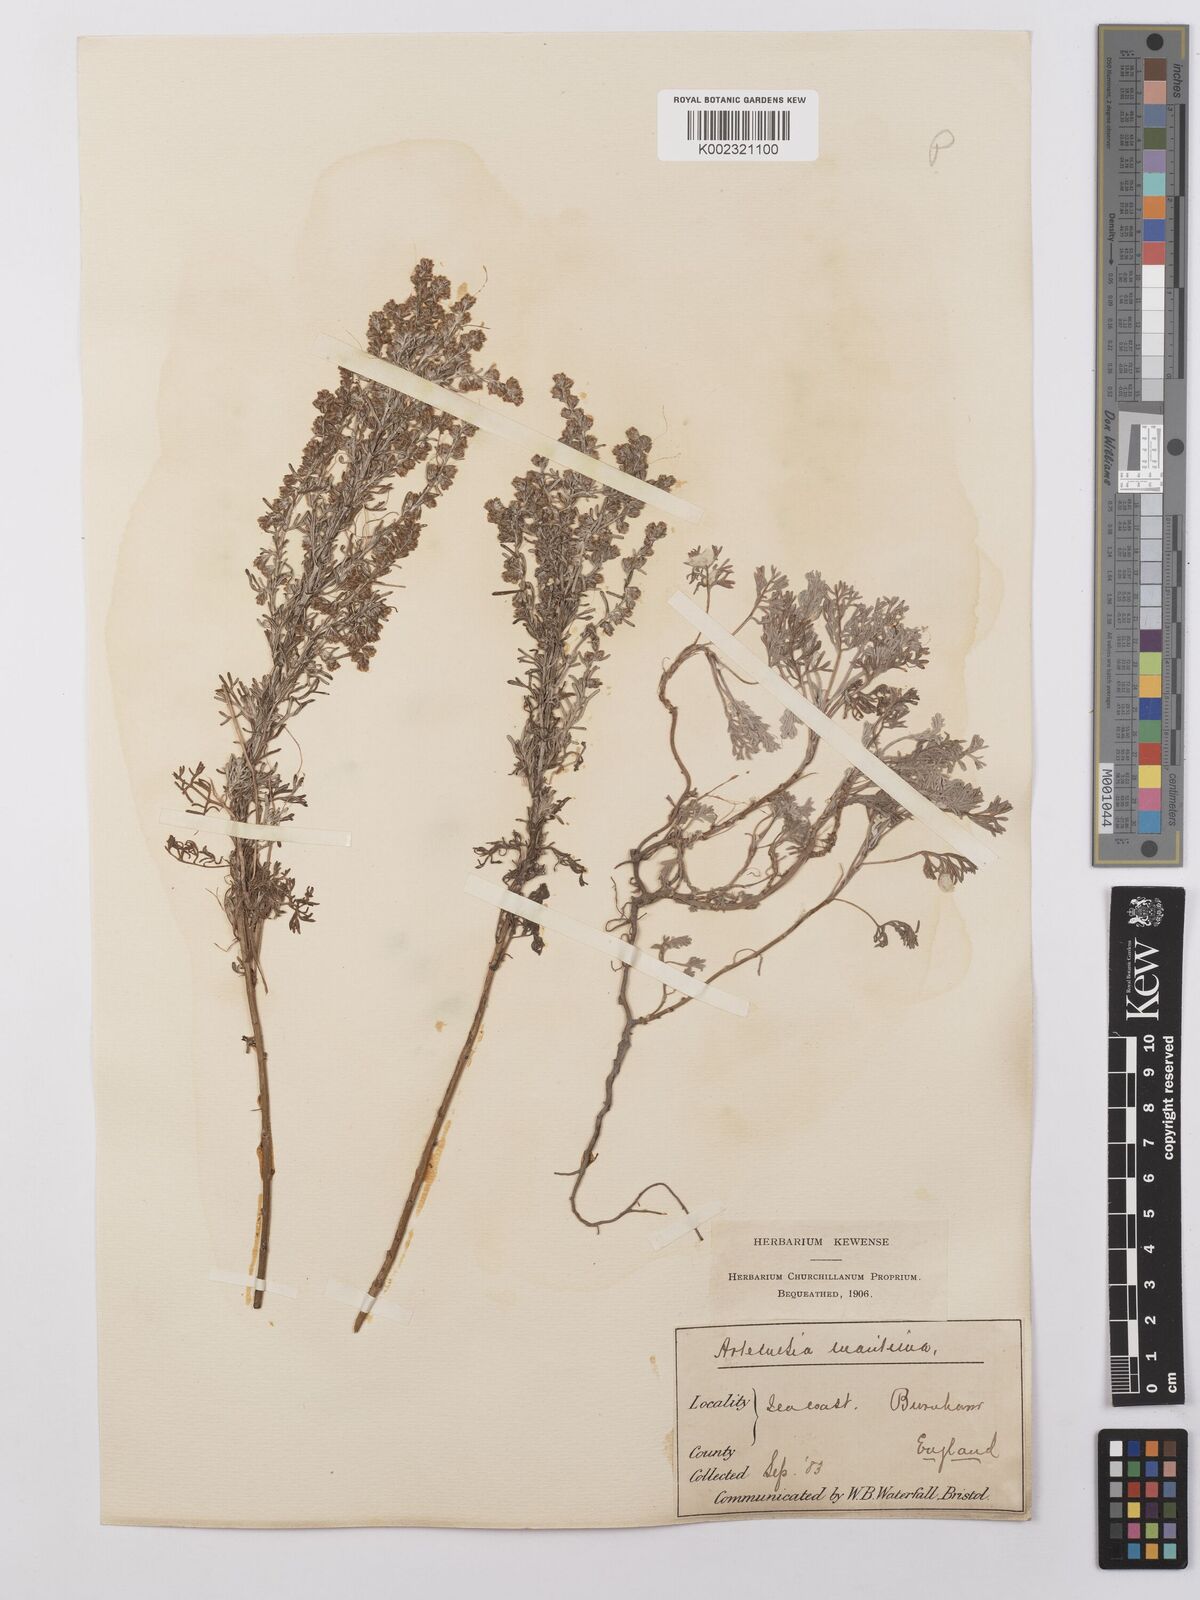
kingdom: Plantae
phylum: Tracheophyta
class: Magnoliopsida
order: Asterales
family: Asteraceae
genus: Artemisia
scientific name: Artemisia maritima
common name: Wormseed
